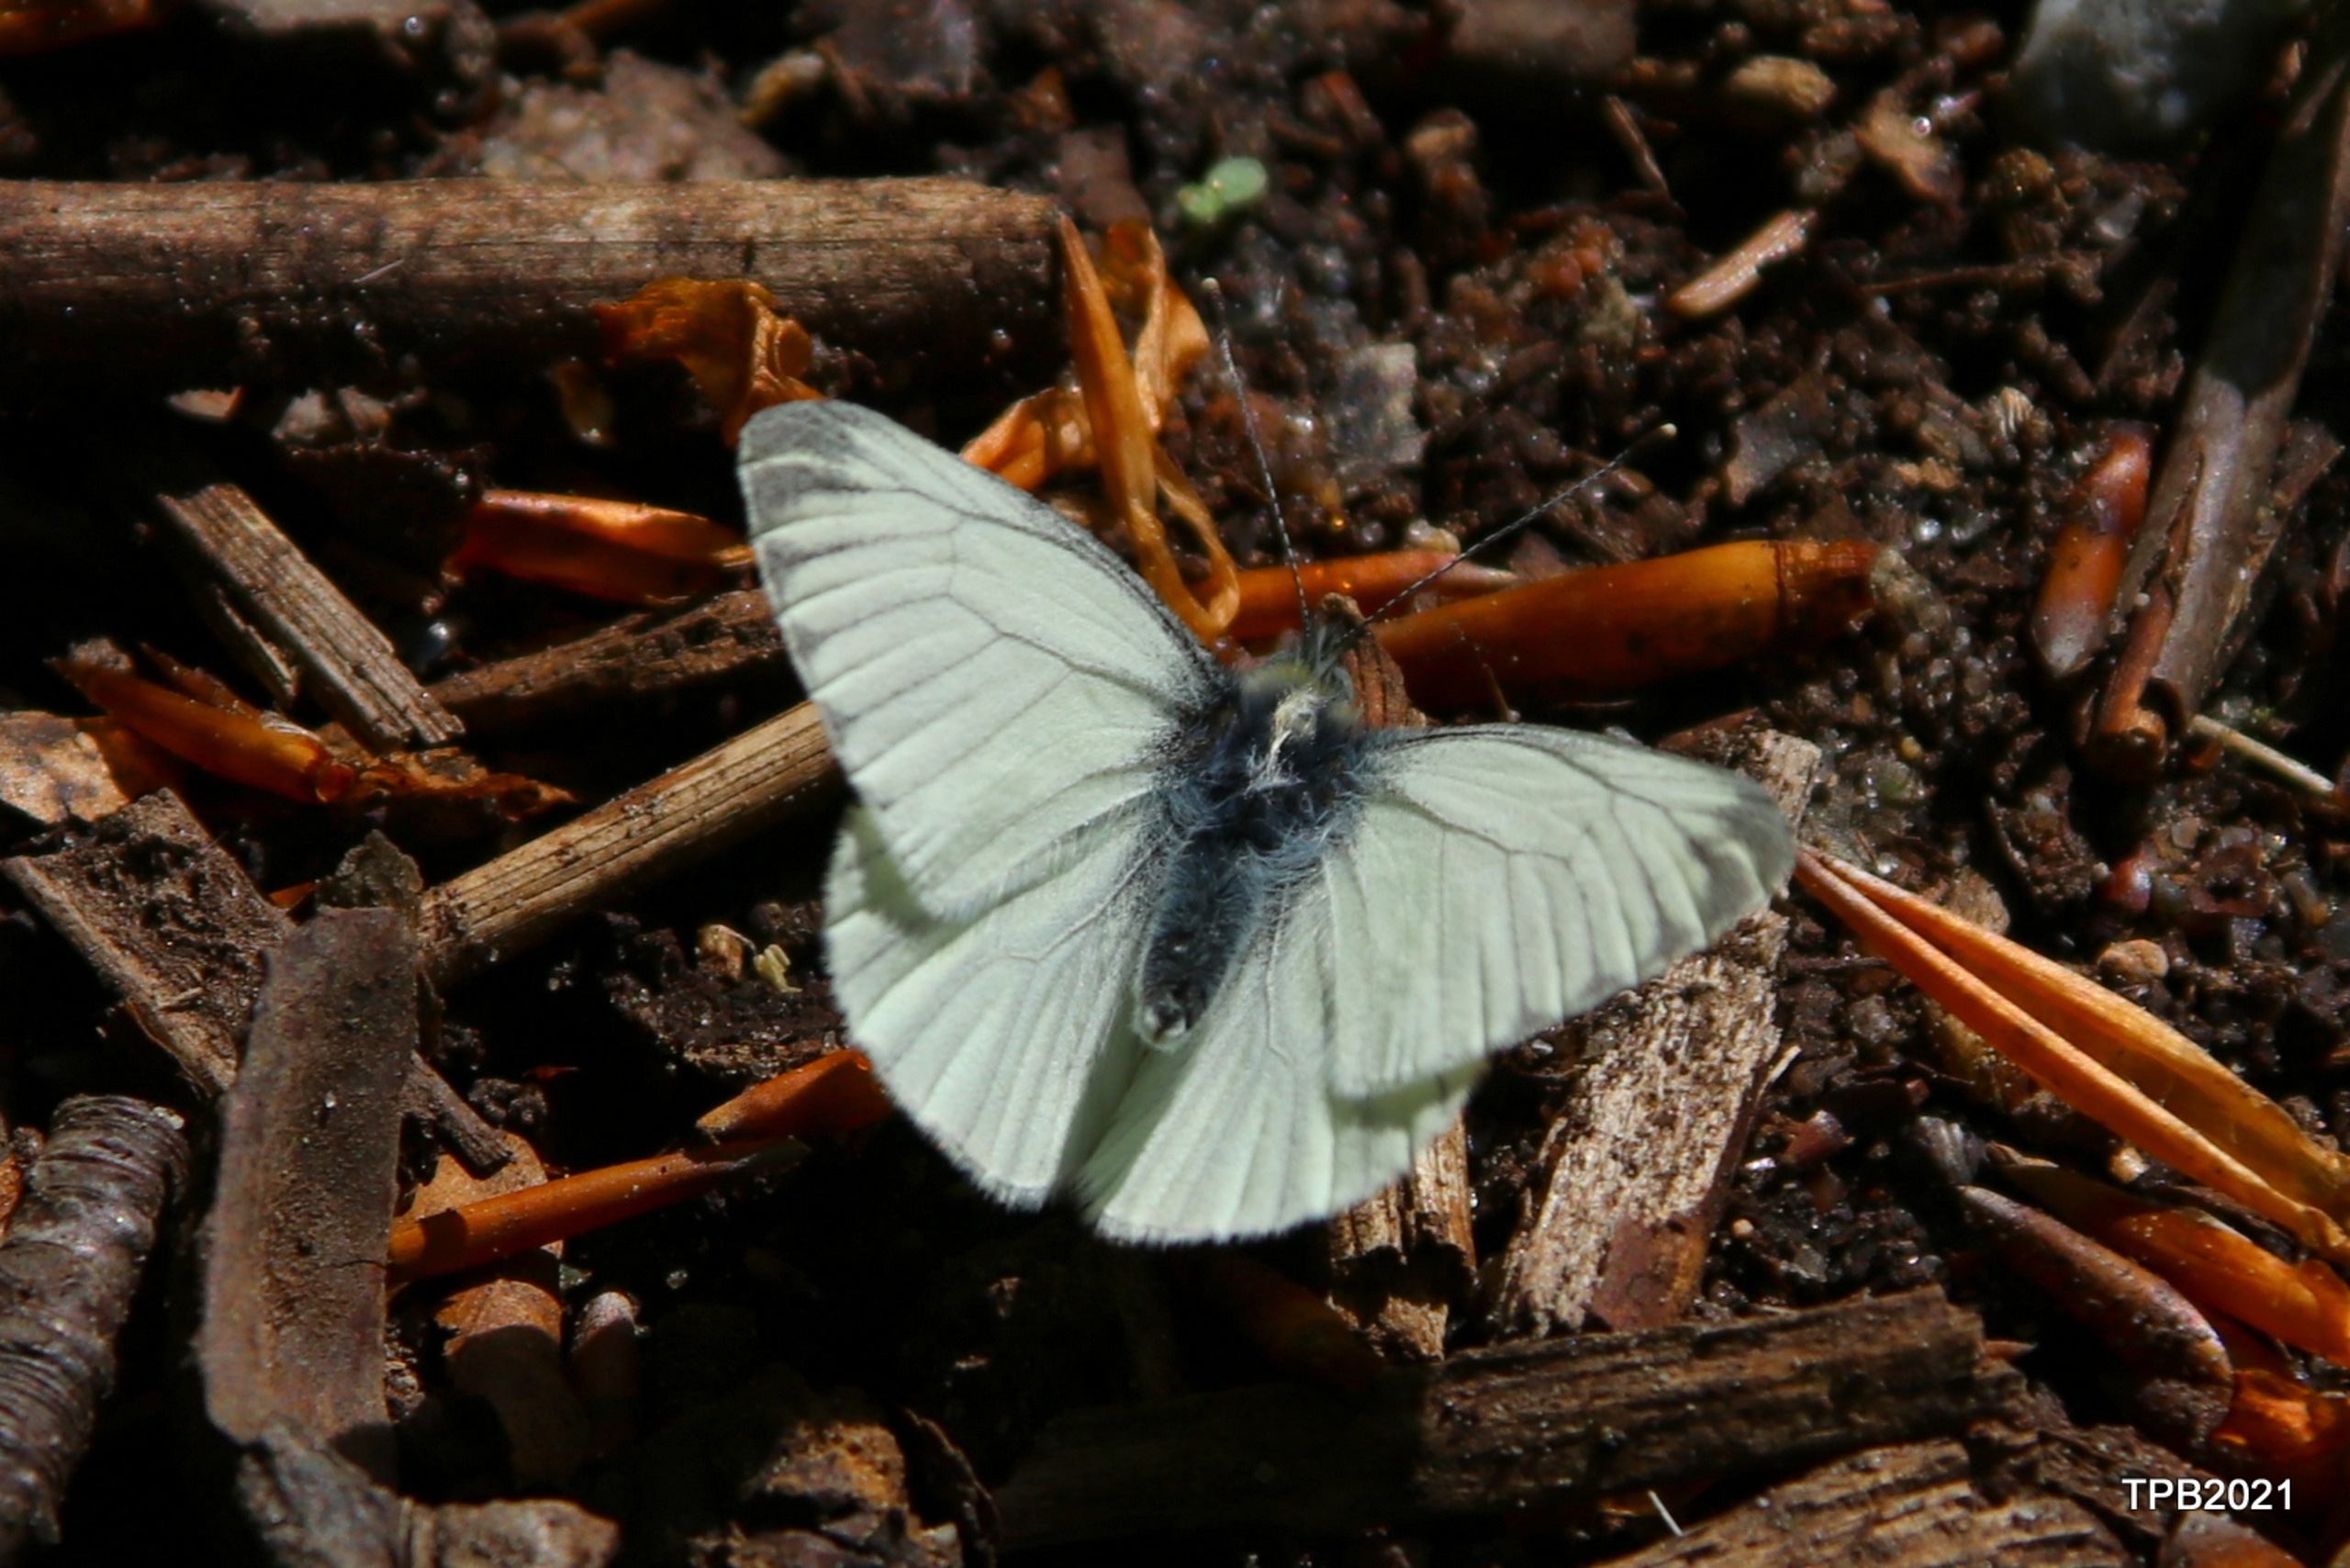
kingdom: Animalia
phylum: Arthropoda
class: Insecta
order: Lepidoptera
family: Pieridae
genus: Pieris
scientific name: Pieris napi
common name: Grønåret kålsommerfugl
